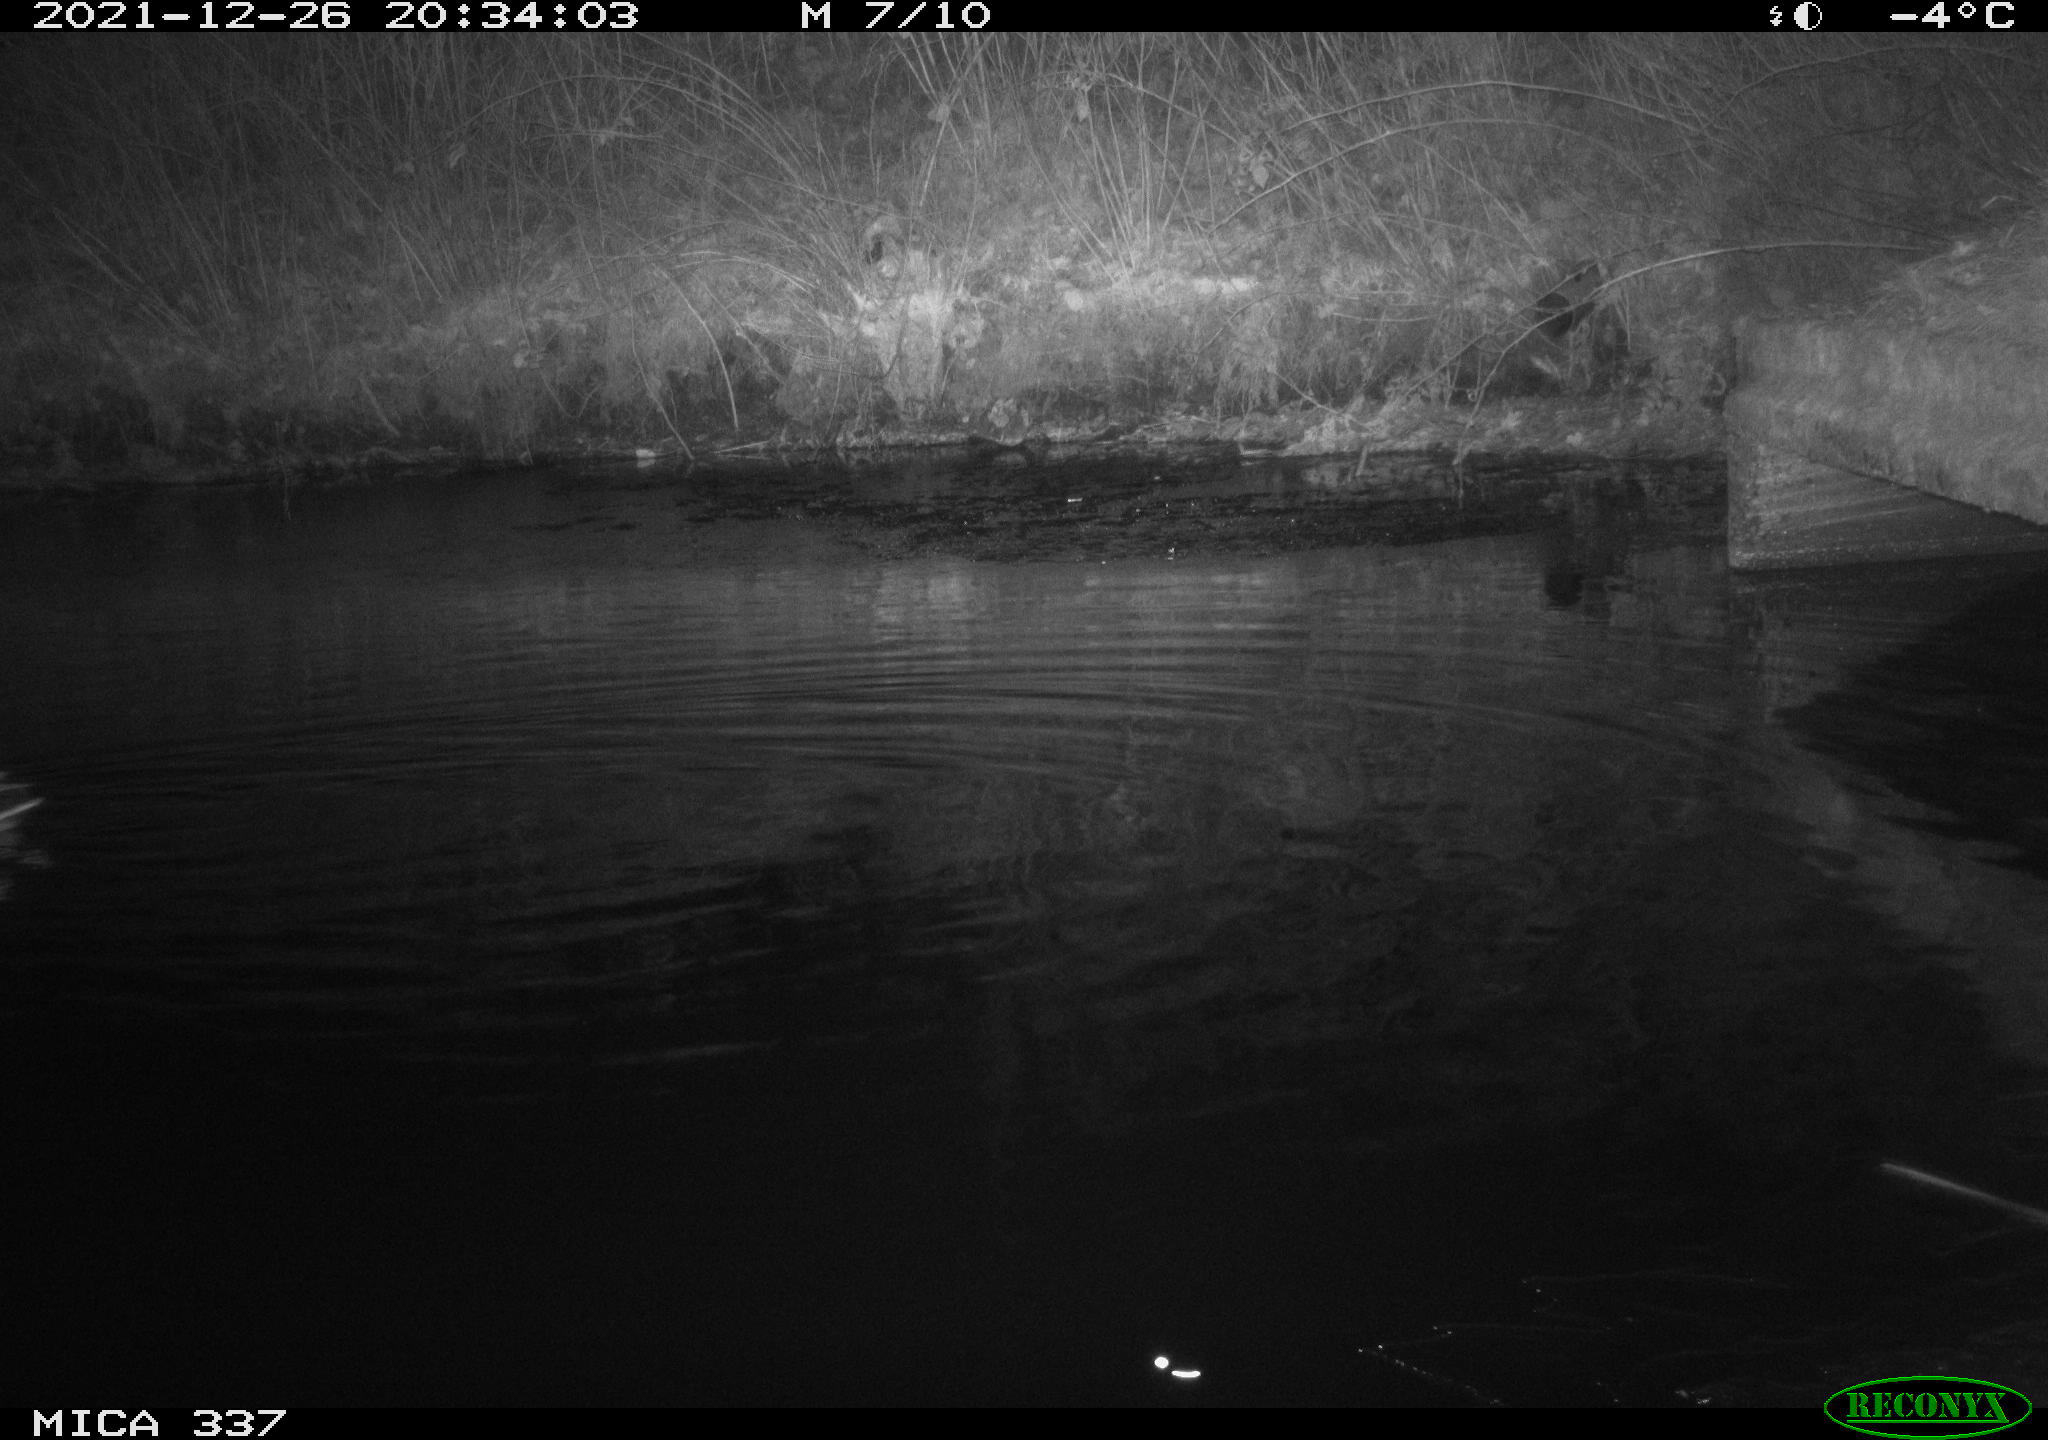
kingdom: Animalia
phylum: Chordata
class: Aves
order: Anseriformes
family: Anatidae
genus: Anas
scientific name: Anas platyrhynchos
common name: Mallard
